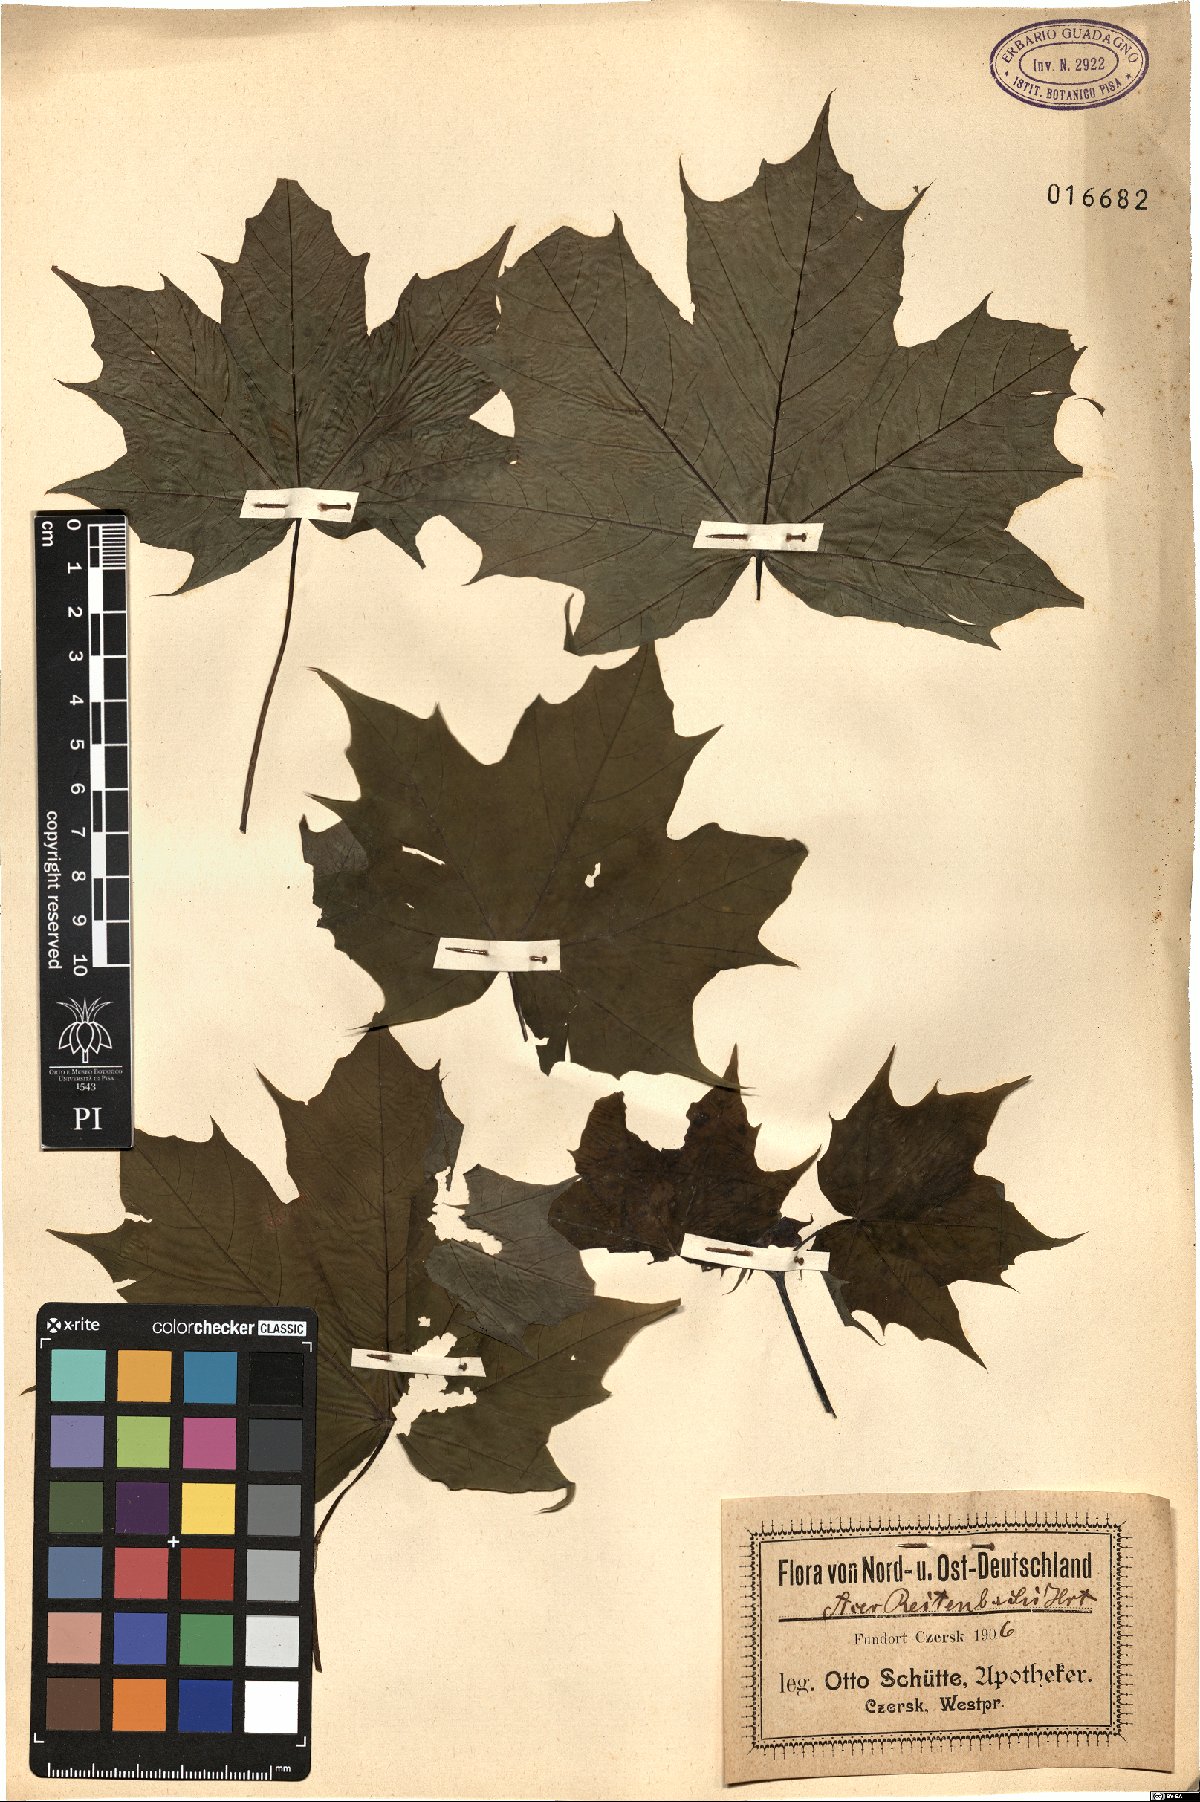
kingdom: Plantae
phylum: Tracheophyta
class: Magnoliopsida
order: Sapindales
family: Sapindaceae
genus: Acer
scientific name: Acer platanoides
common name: Norway maple
